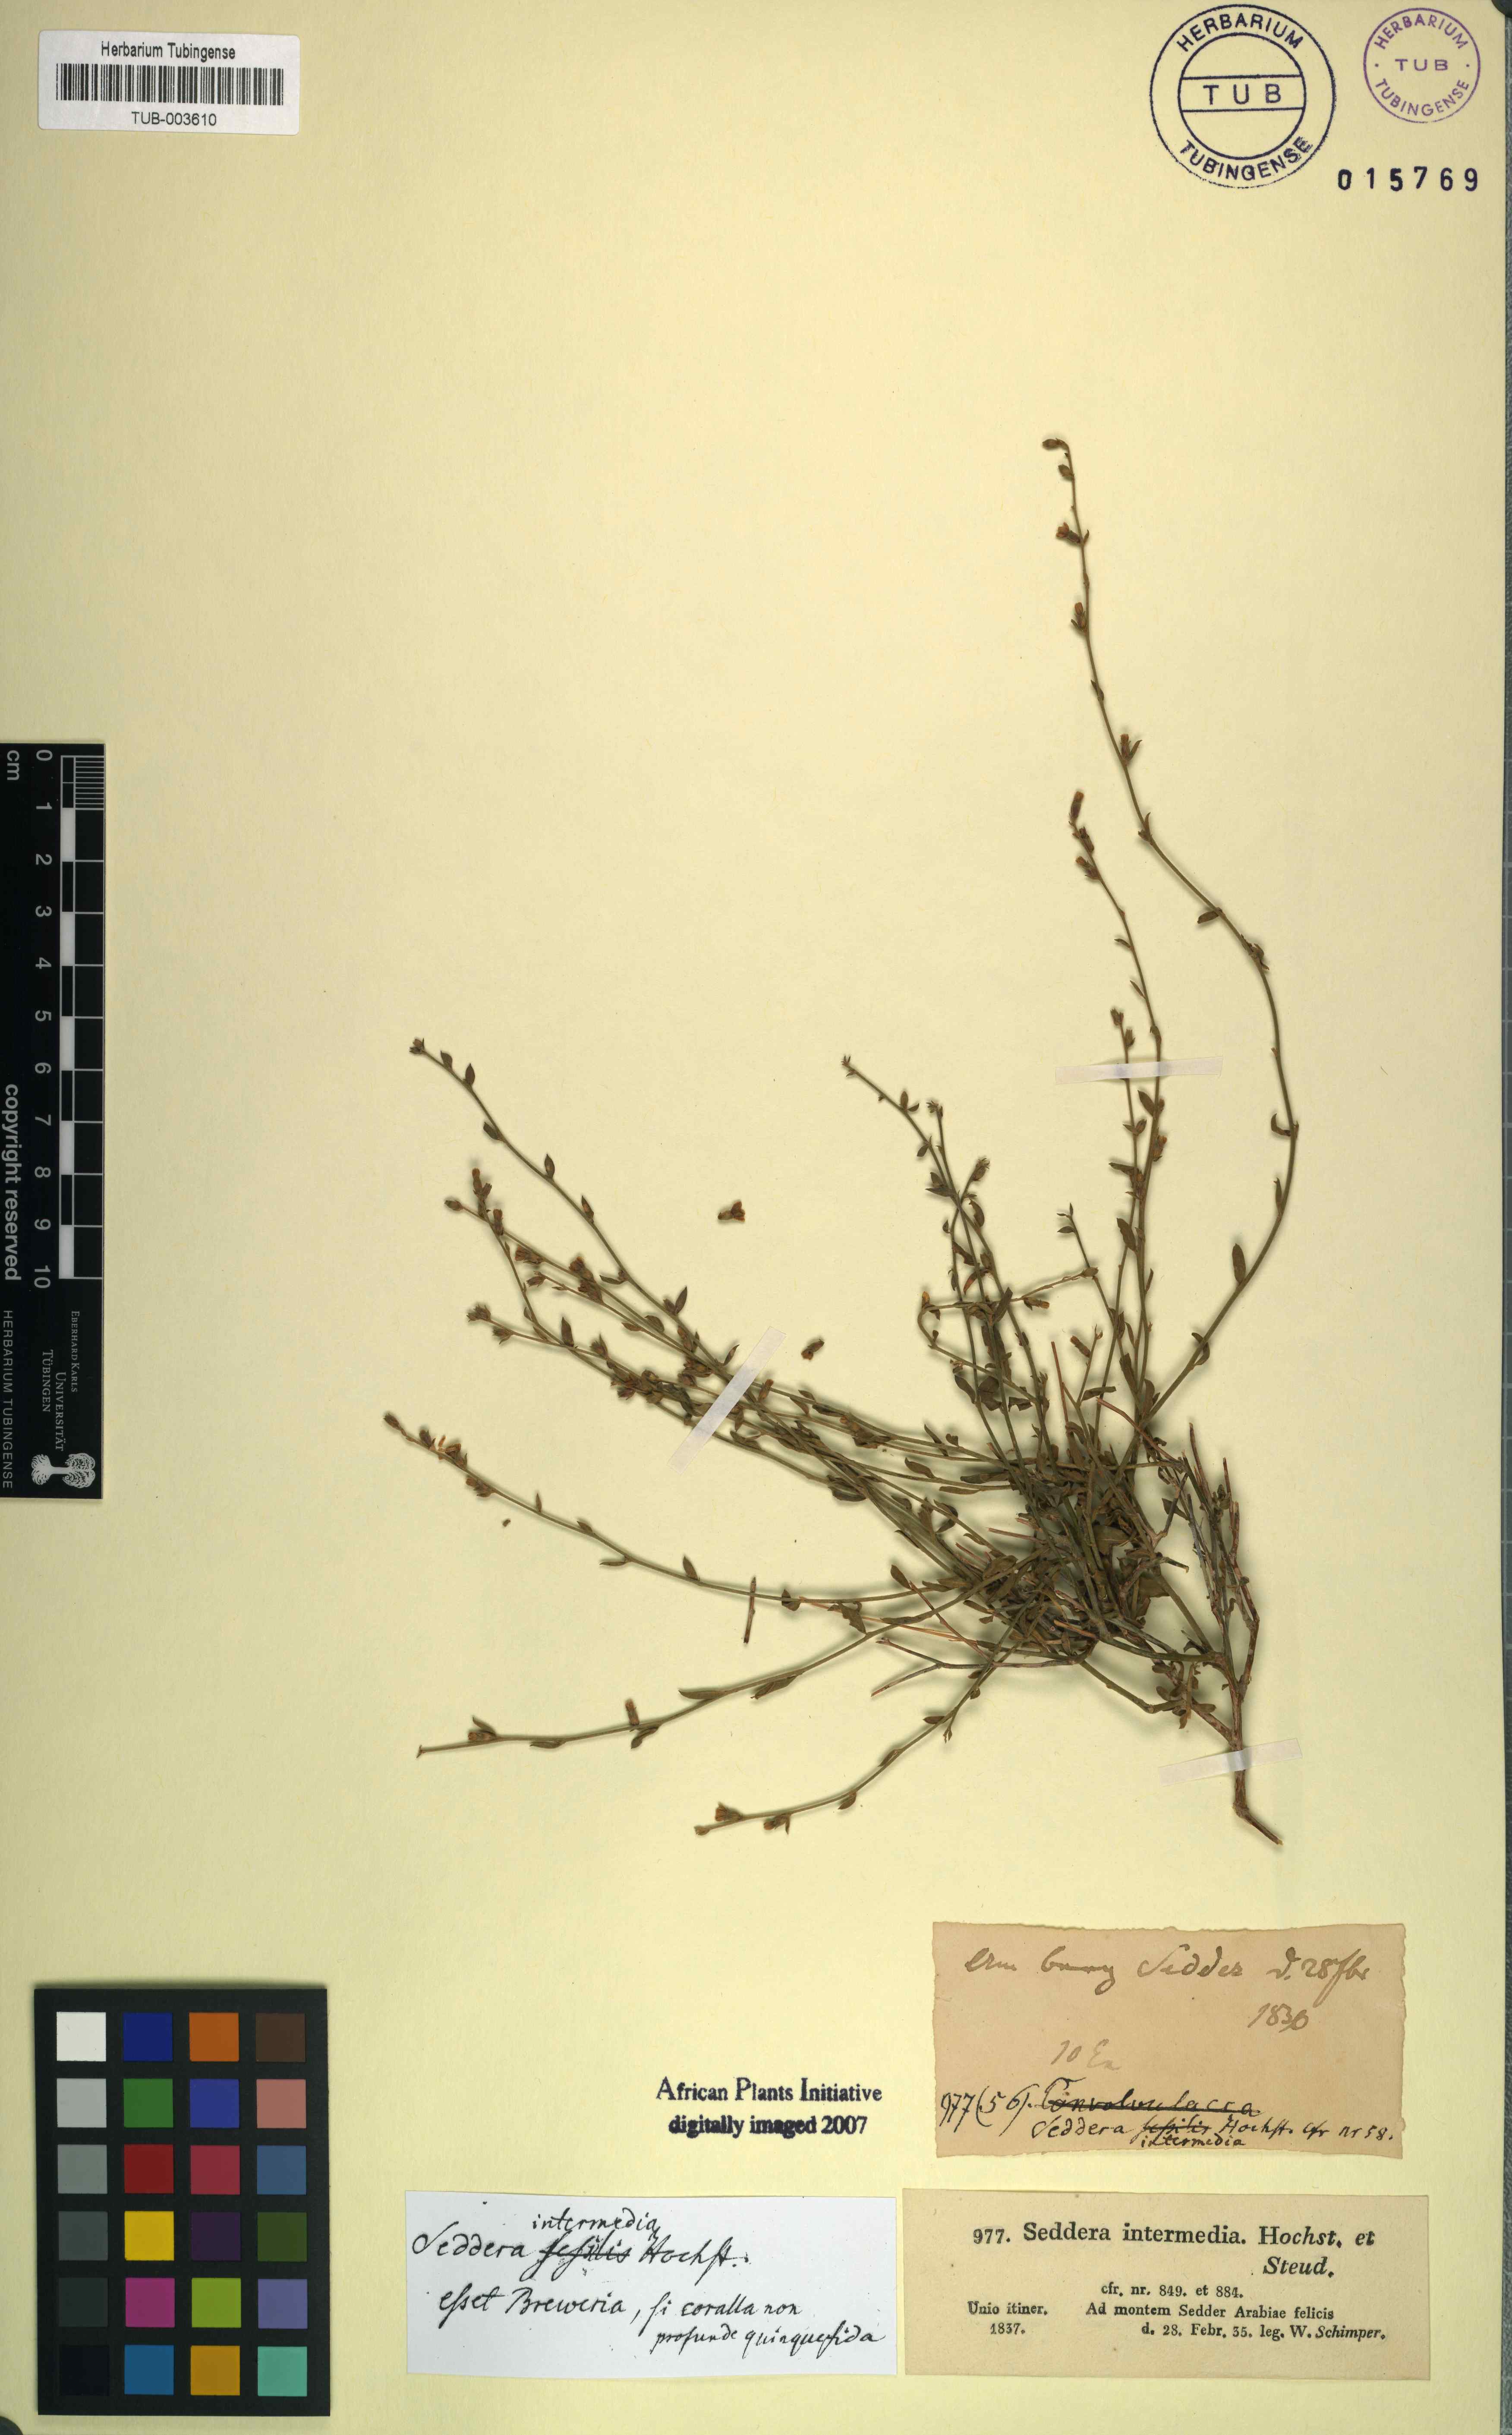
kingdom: Plantae
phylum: Tracheophyta
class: Magnoliopsida
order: Solanales
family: Convolvulaceae
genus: Seddera
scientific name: Seddera intermedia
